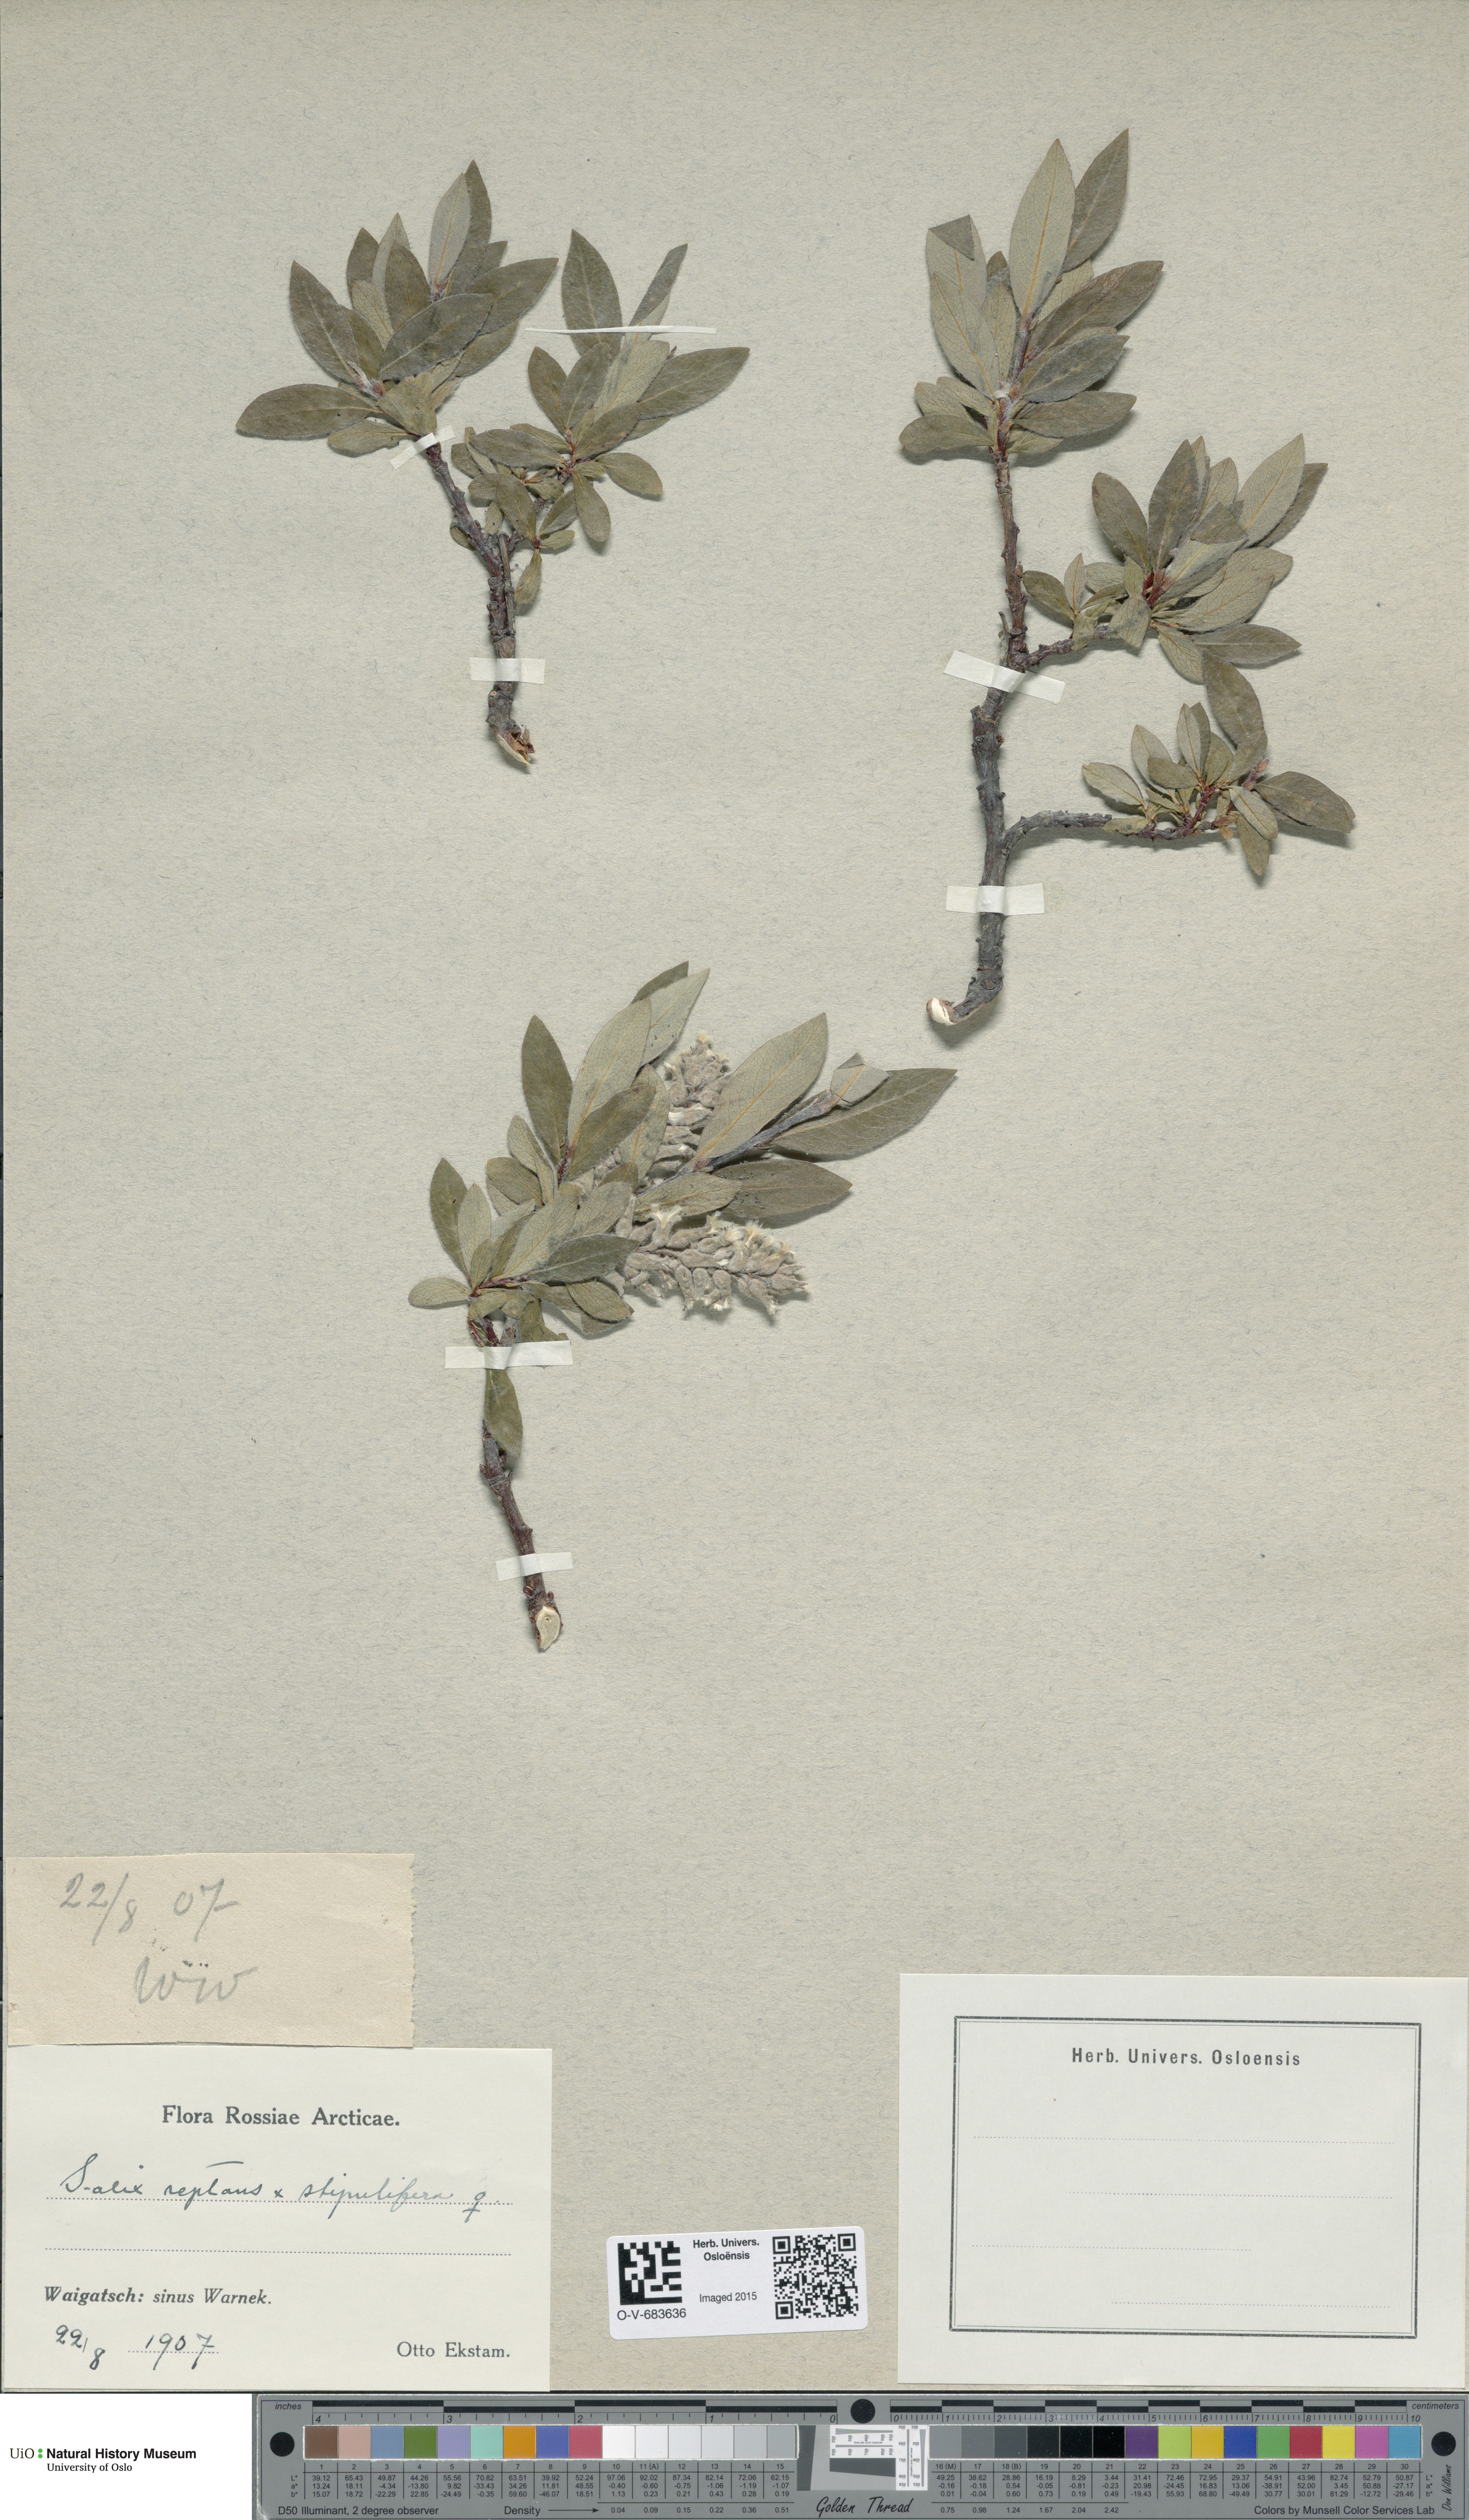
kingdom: Plantae
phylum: Tracheophyta
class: Magnoliopsida
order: Malpighiales
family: Salicaceae
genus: Salix
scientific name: Salix reptans
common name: Arctic creeping willow
